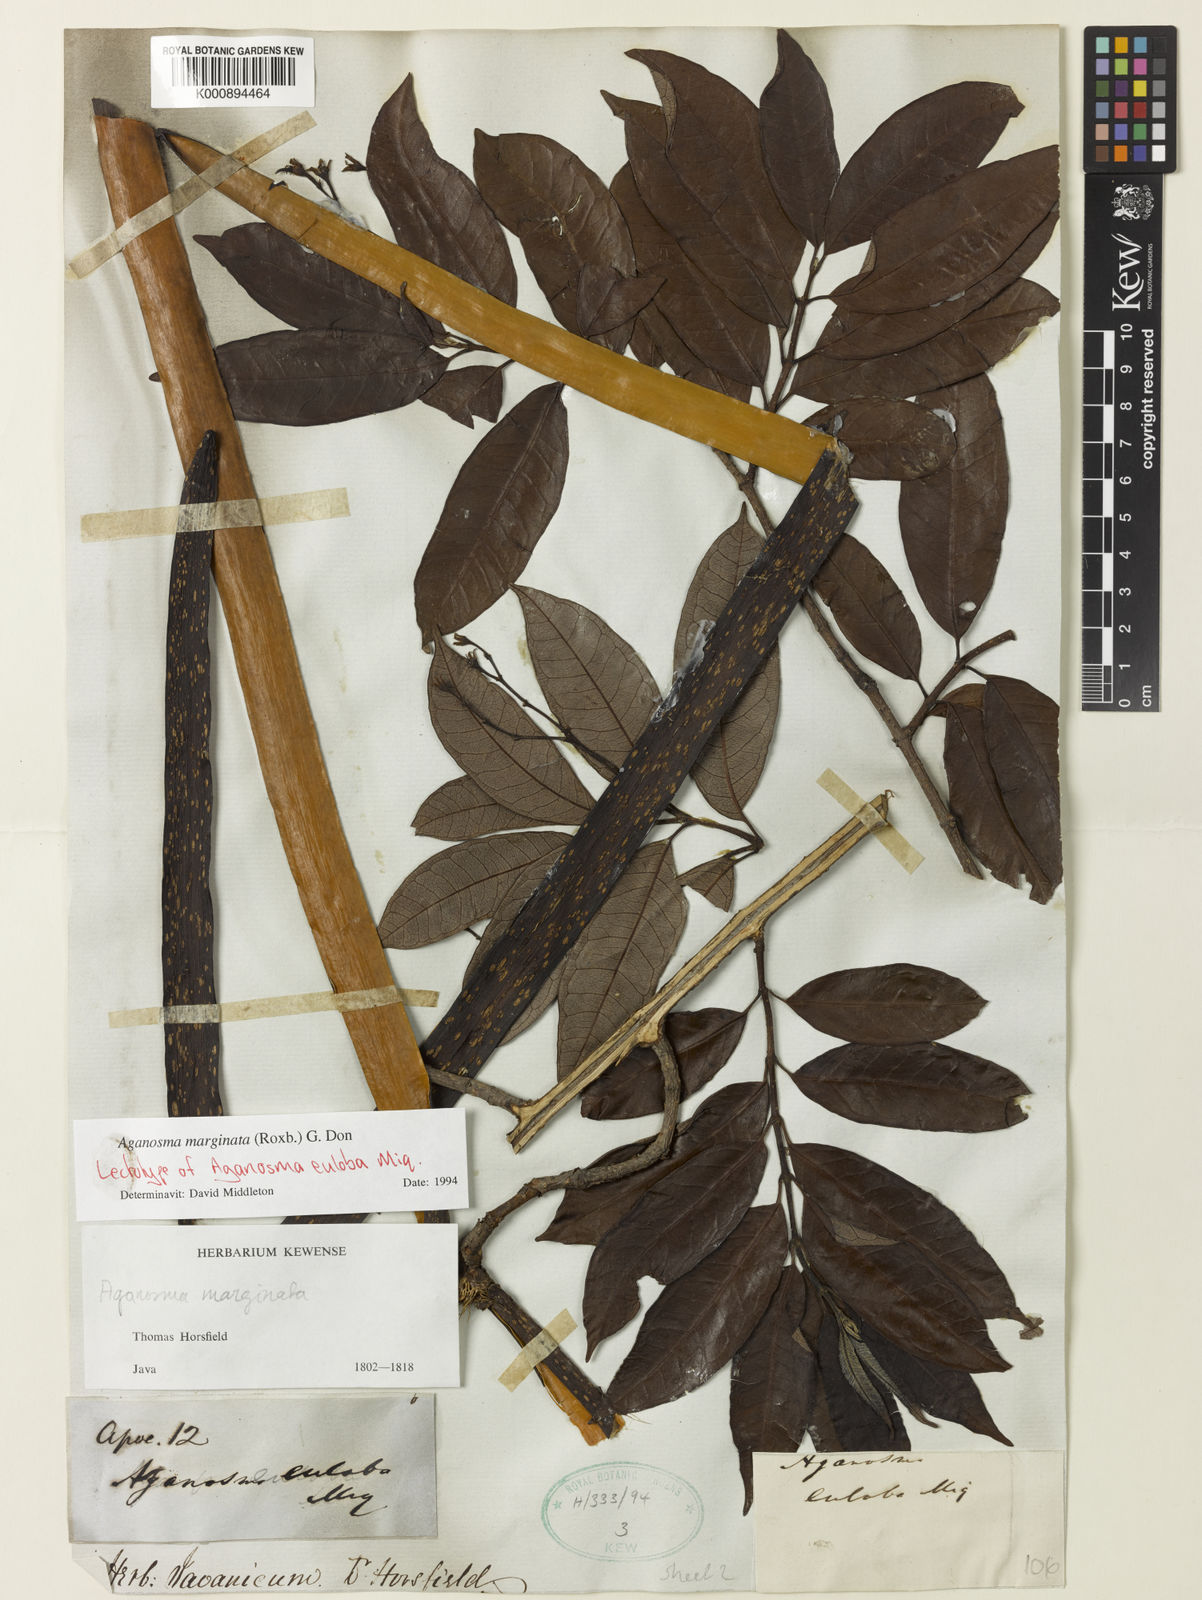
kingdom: Plantae
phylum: Tracheophyta
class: Magnoliopsida
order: Gentianales
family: Apocynaceae
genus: Amphineurion
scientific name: Amphineurion marginatum
